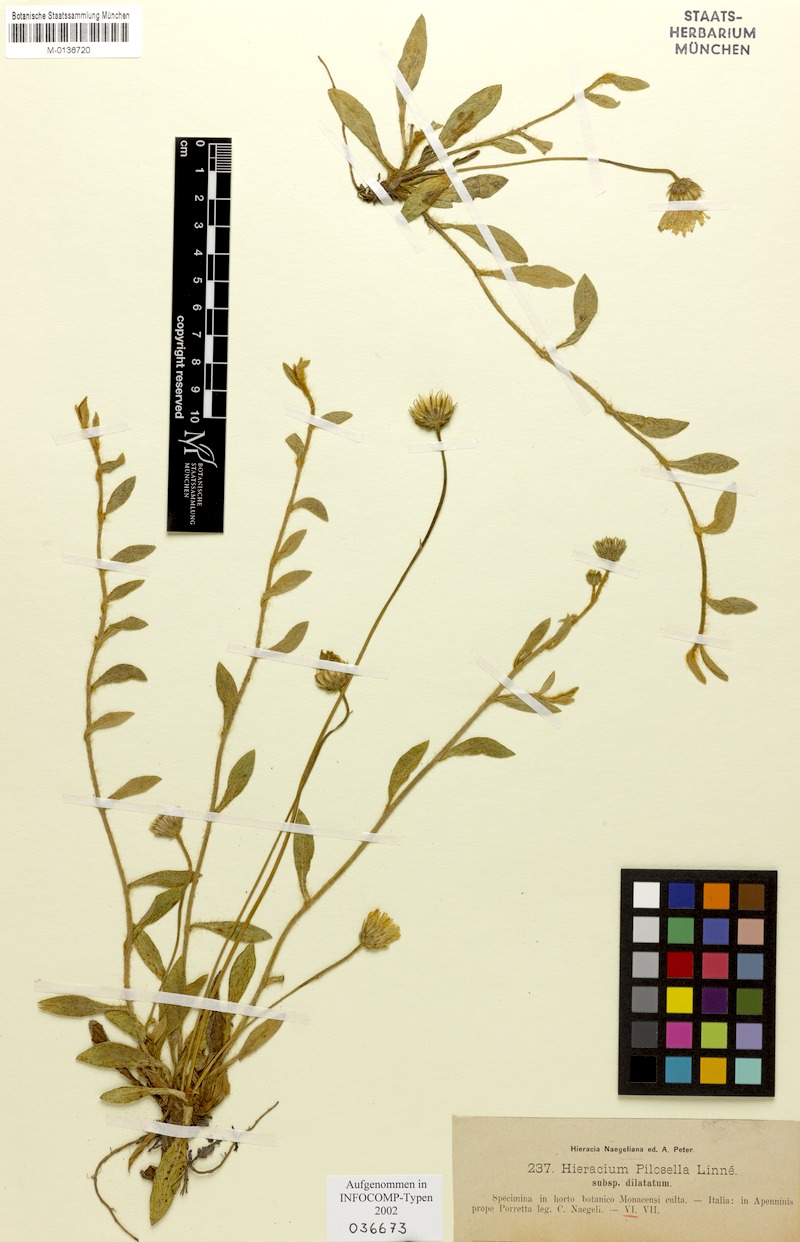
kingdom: Plantae
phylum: Tracheophyta
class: Magnoliopsida
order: Asterales
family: Asteraceae
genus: Pilosella
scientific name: Pilosella officinarum
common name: Mouse-ear hawkweed
